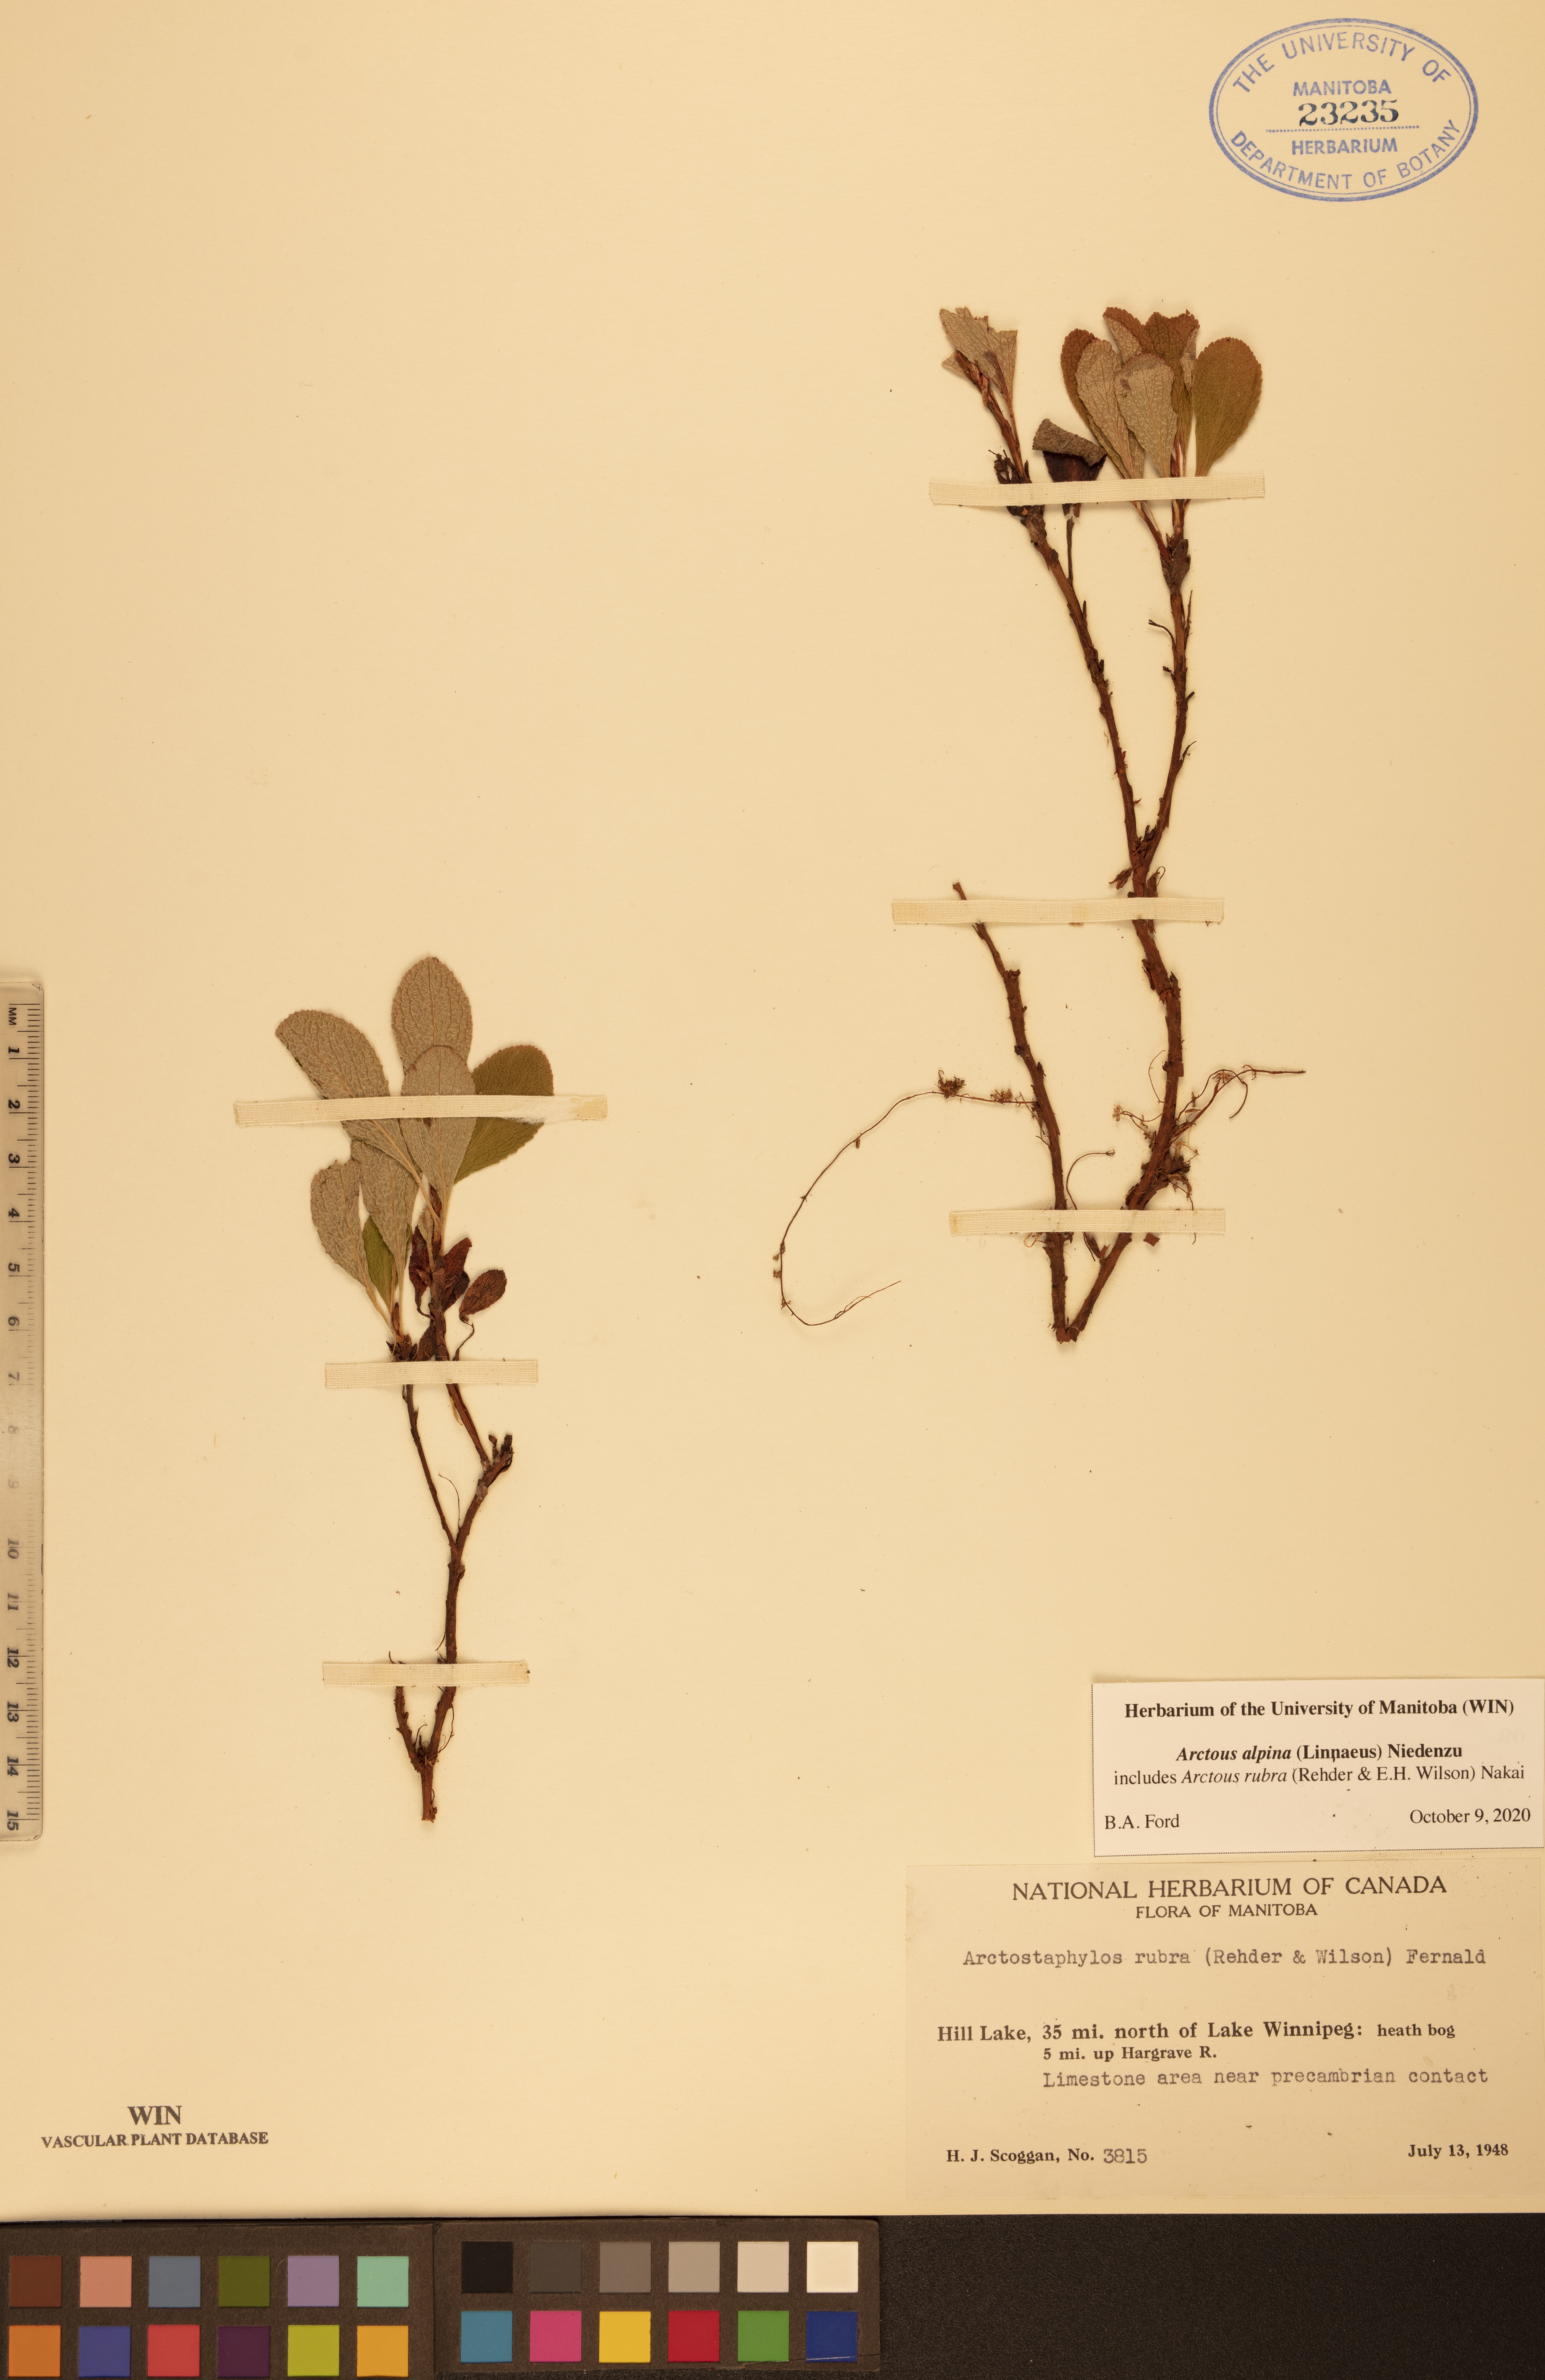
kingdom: Plantae
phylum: Tracheophyta
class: Magnoliopsida
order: Ericales
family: Ericaceae
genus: Arctostaphylos
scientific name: Arctostaphylos alpinus
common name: Alpine bearberry
